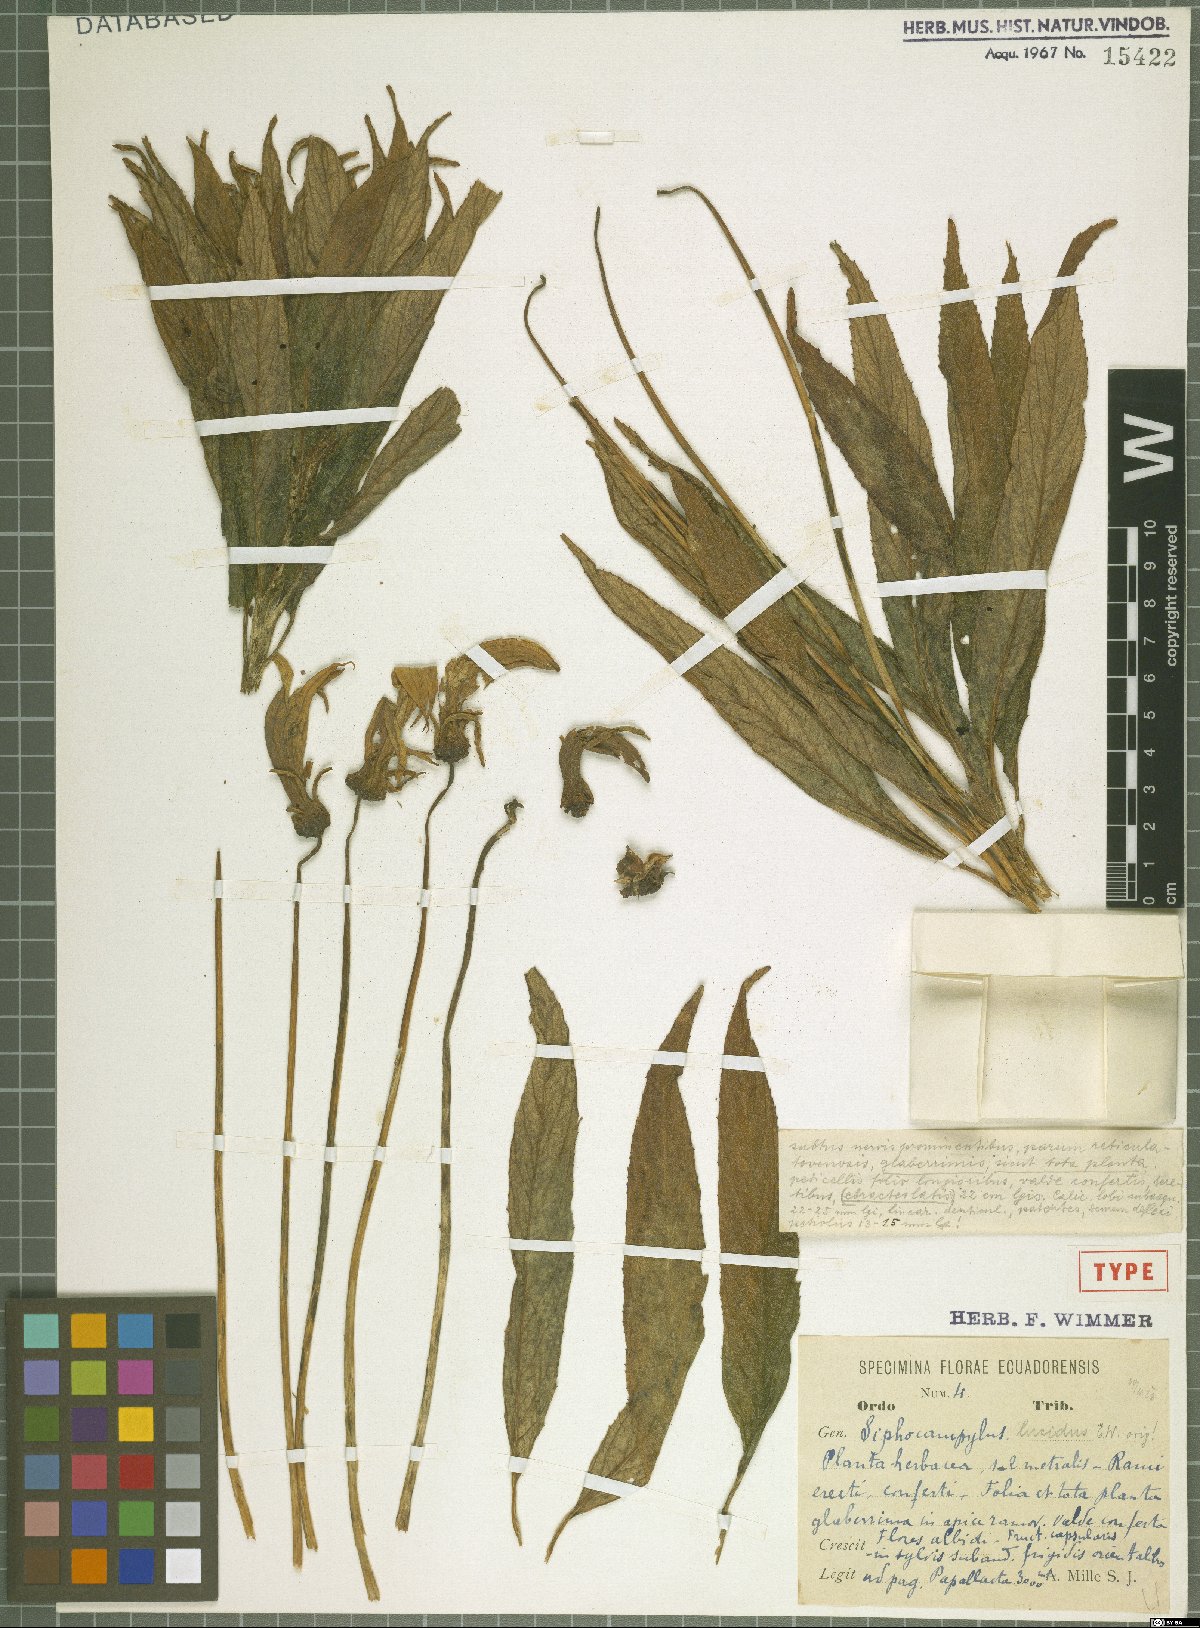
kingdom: Plantae
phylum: Tracheophyta
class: Magnoliopsida
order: Asterales
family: Campanulaceae
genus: Siphocampylus
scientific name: Siphocampylus lucidus
